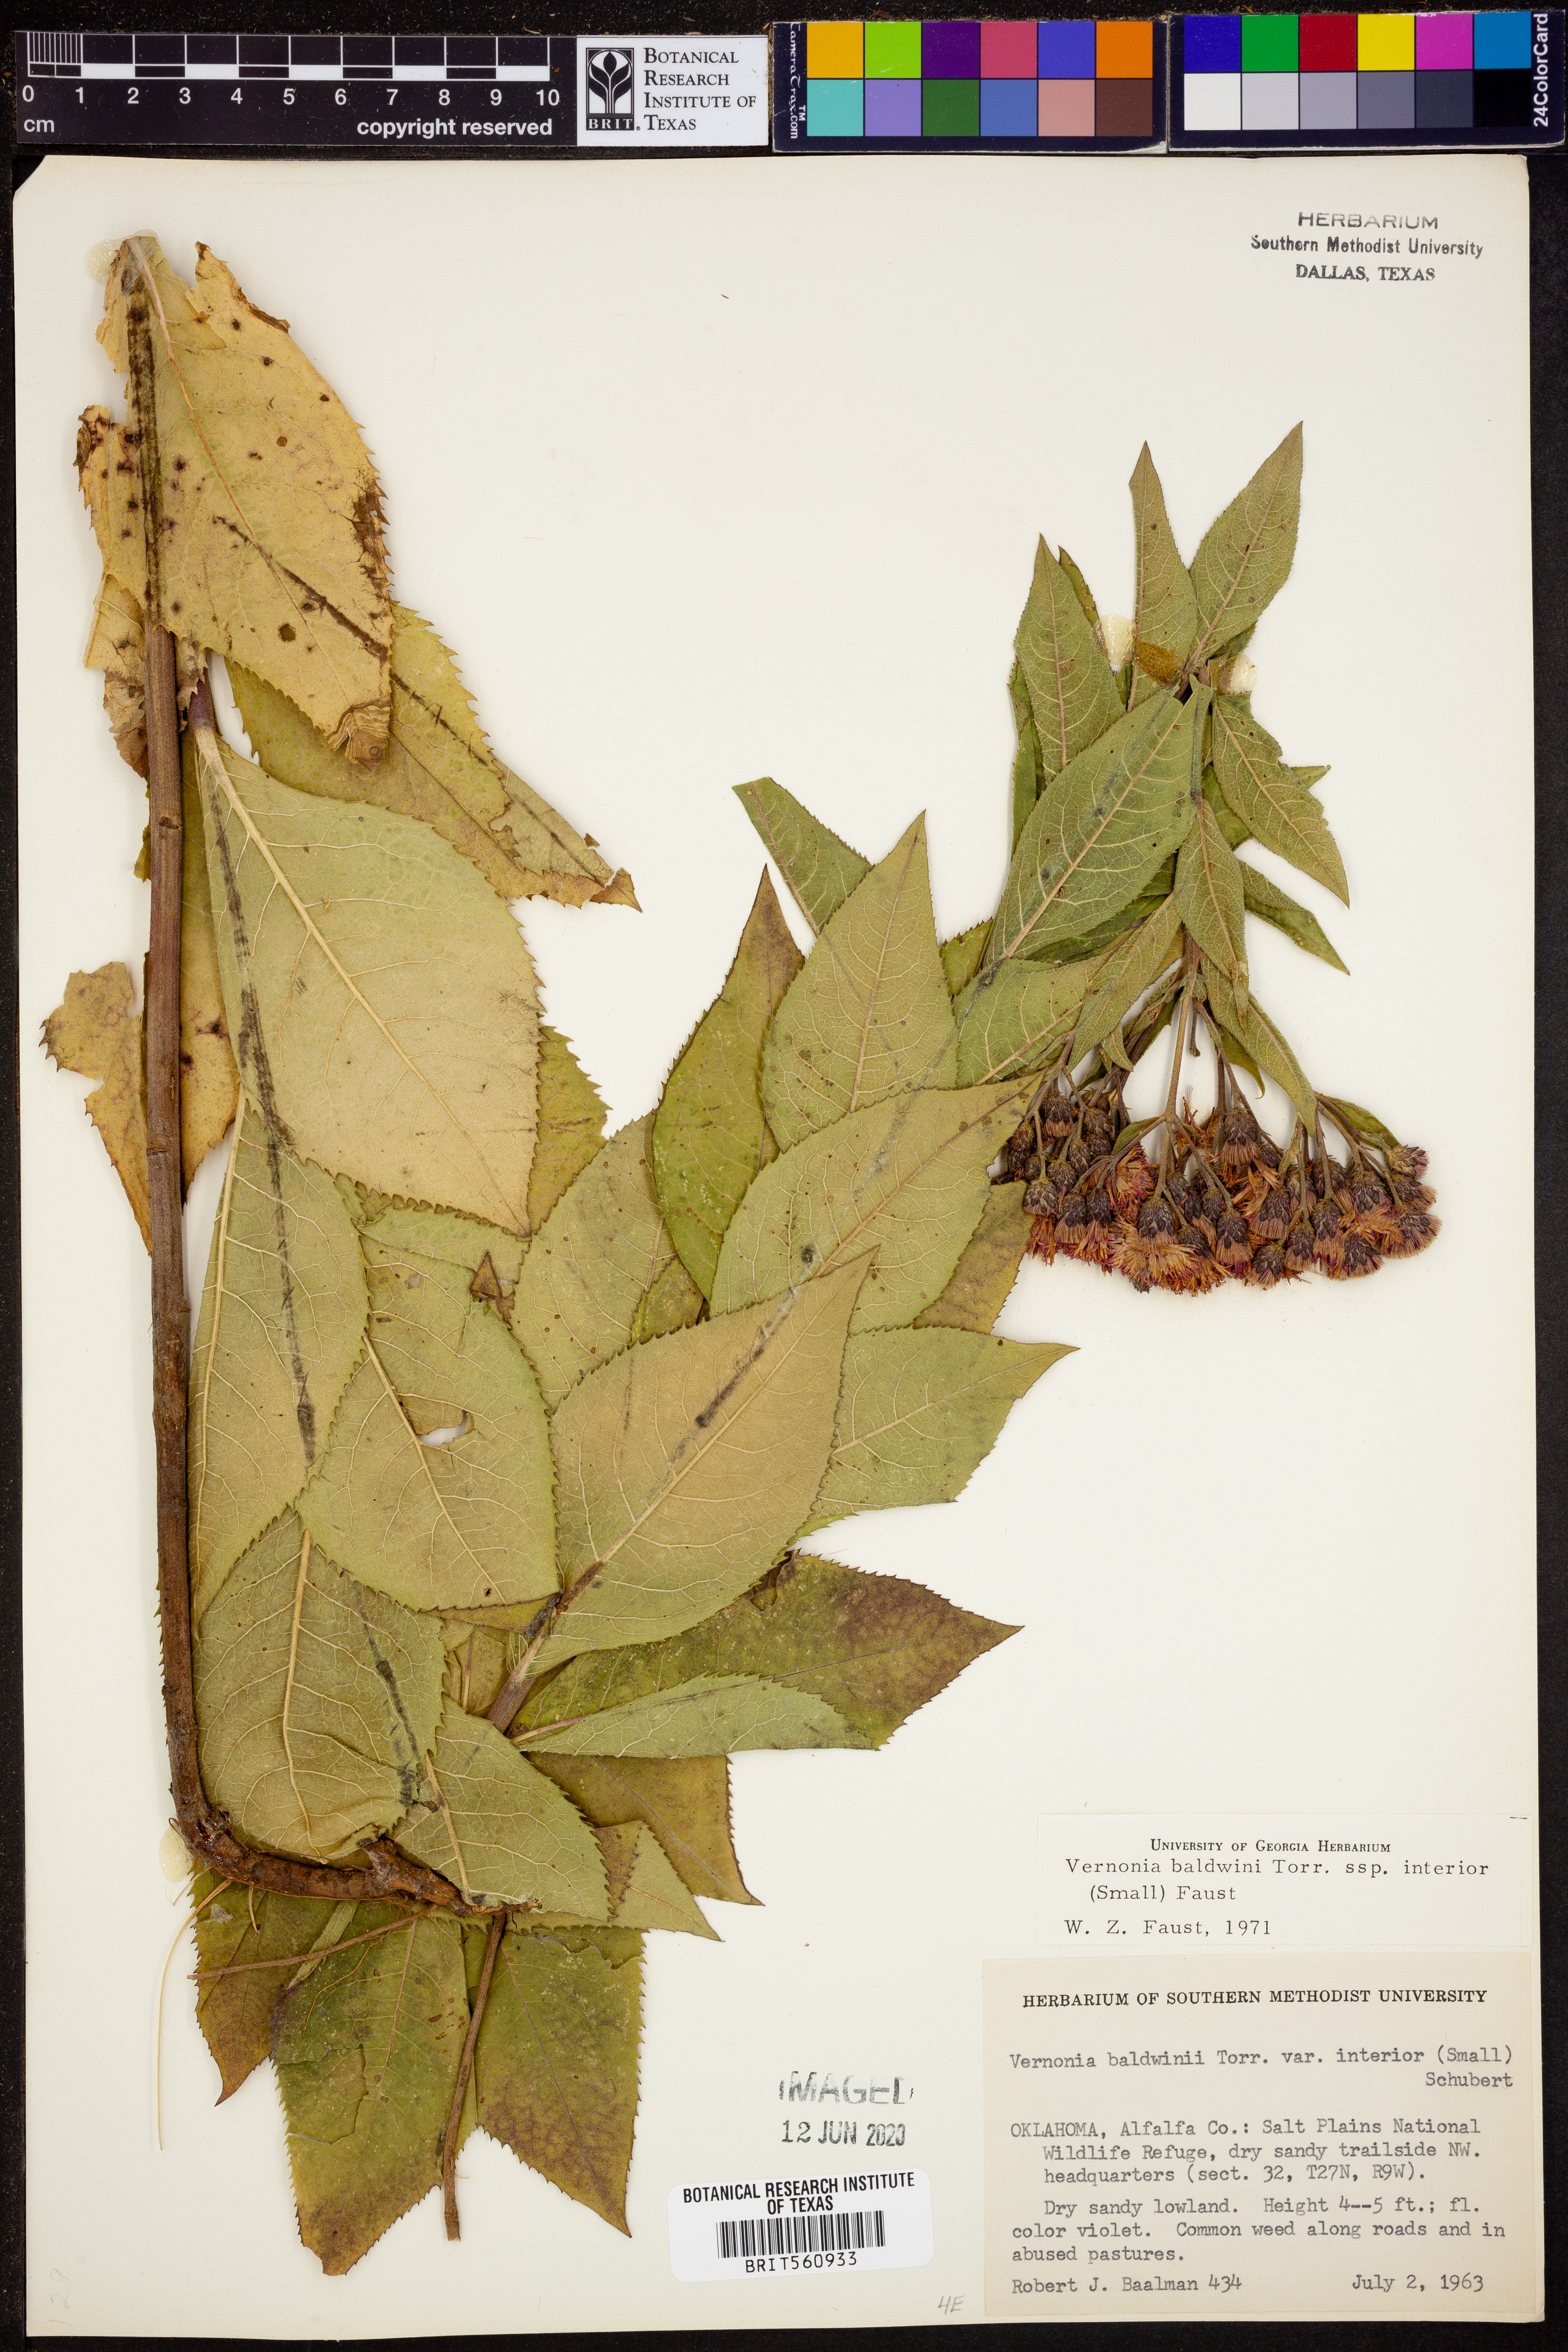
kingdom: Plantae
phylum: Tracheophyta
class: Magnoliopsida
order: Asterales
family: Asteraceae
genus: Vernonia
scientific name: Vernonia baldwinii
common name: Western ironweed
